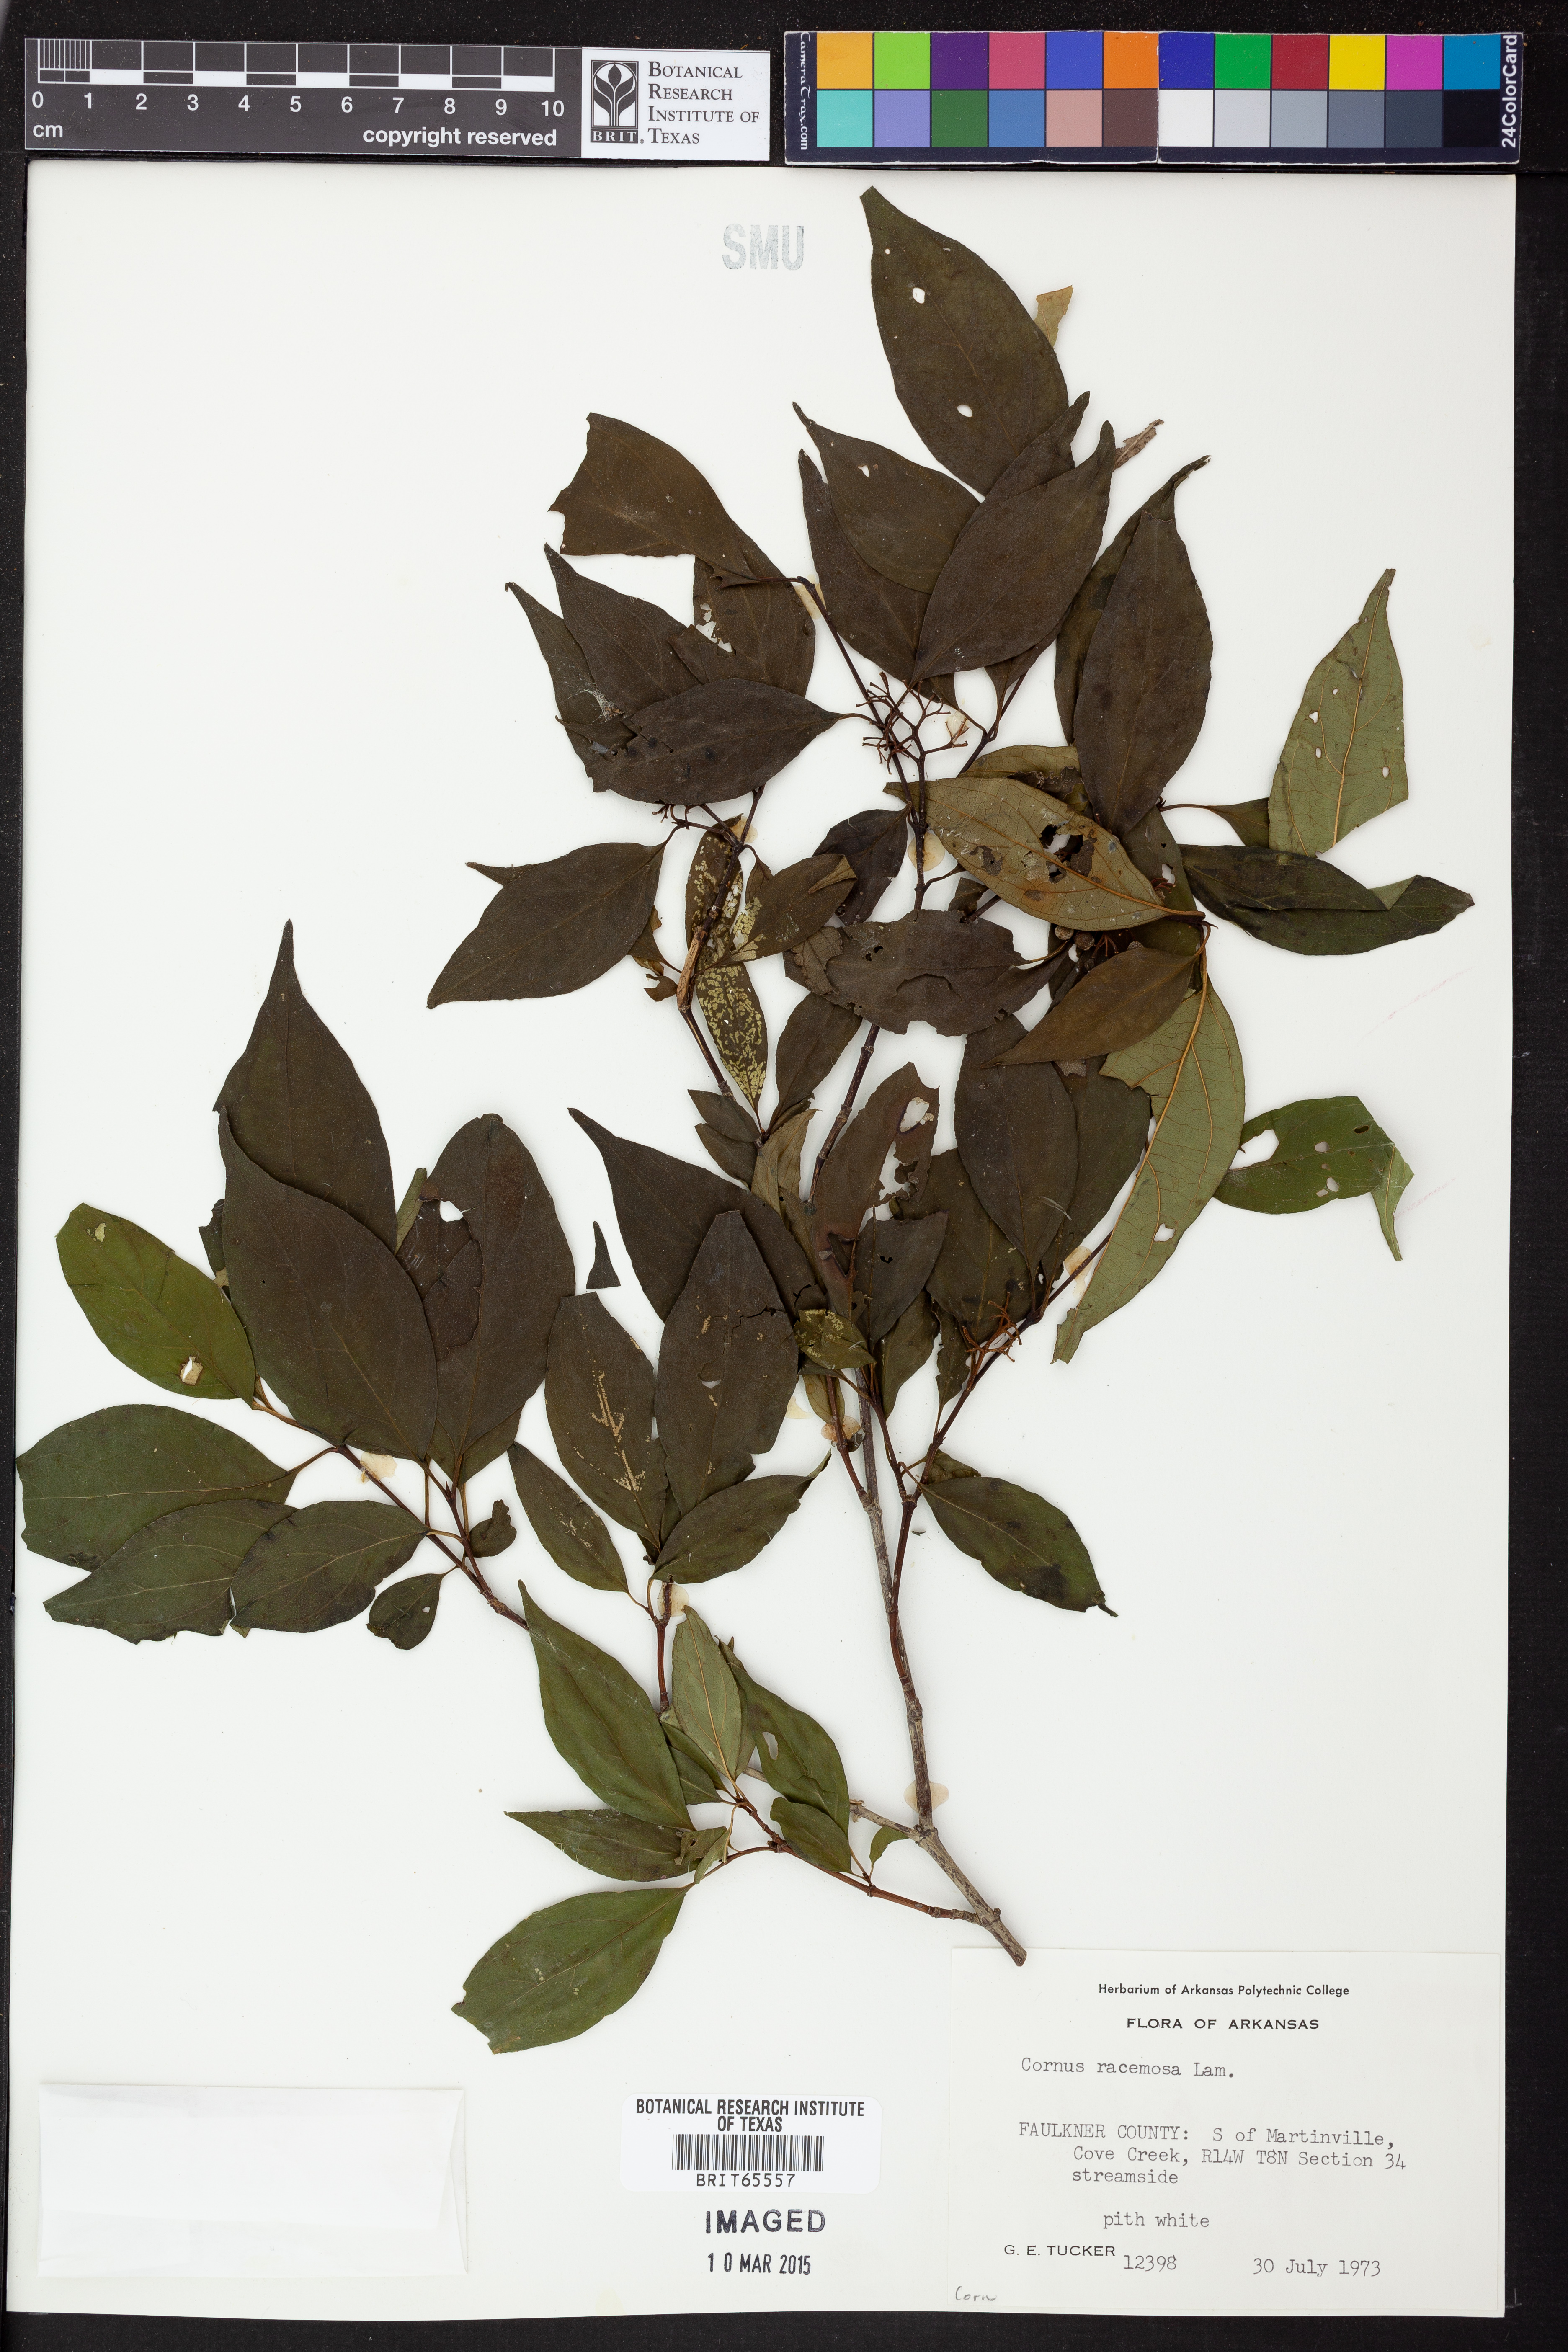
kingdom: Plantae
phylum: Tracheophyta
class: Magnoliopsida
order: Cornales
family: Cornaceae
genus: Cornus
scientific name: Cornus racemosa
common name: Panicled dogwood
